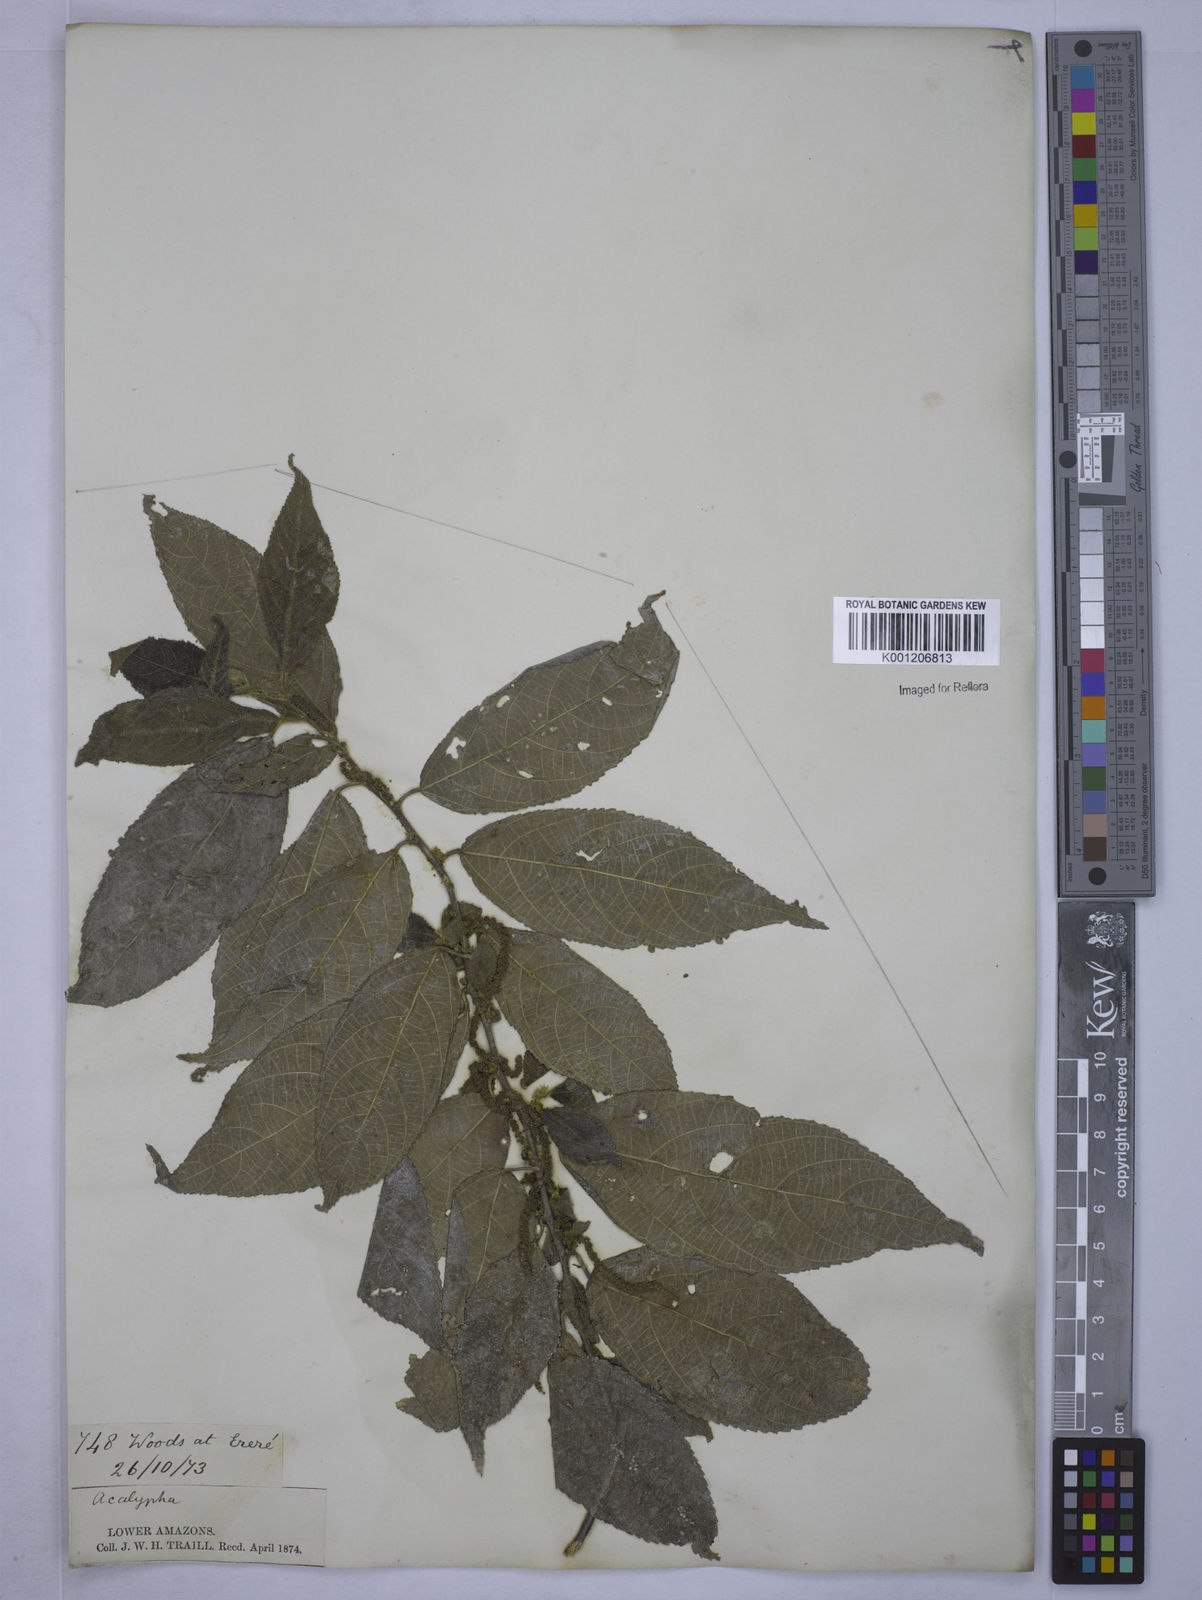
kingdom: Plantae
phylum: Tracheophyta
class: Magnoliopsida
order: Malpighiales
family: Euphorbiaceae
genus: Acalypha
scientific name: Acalypha
